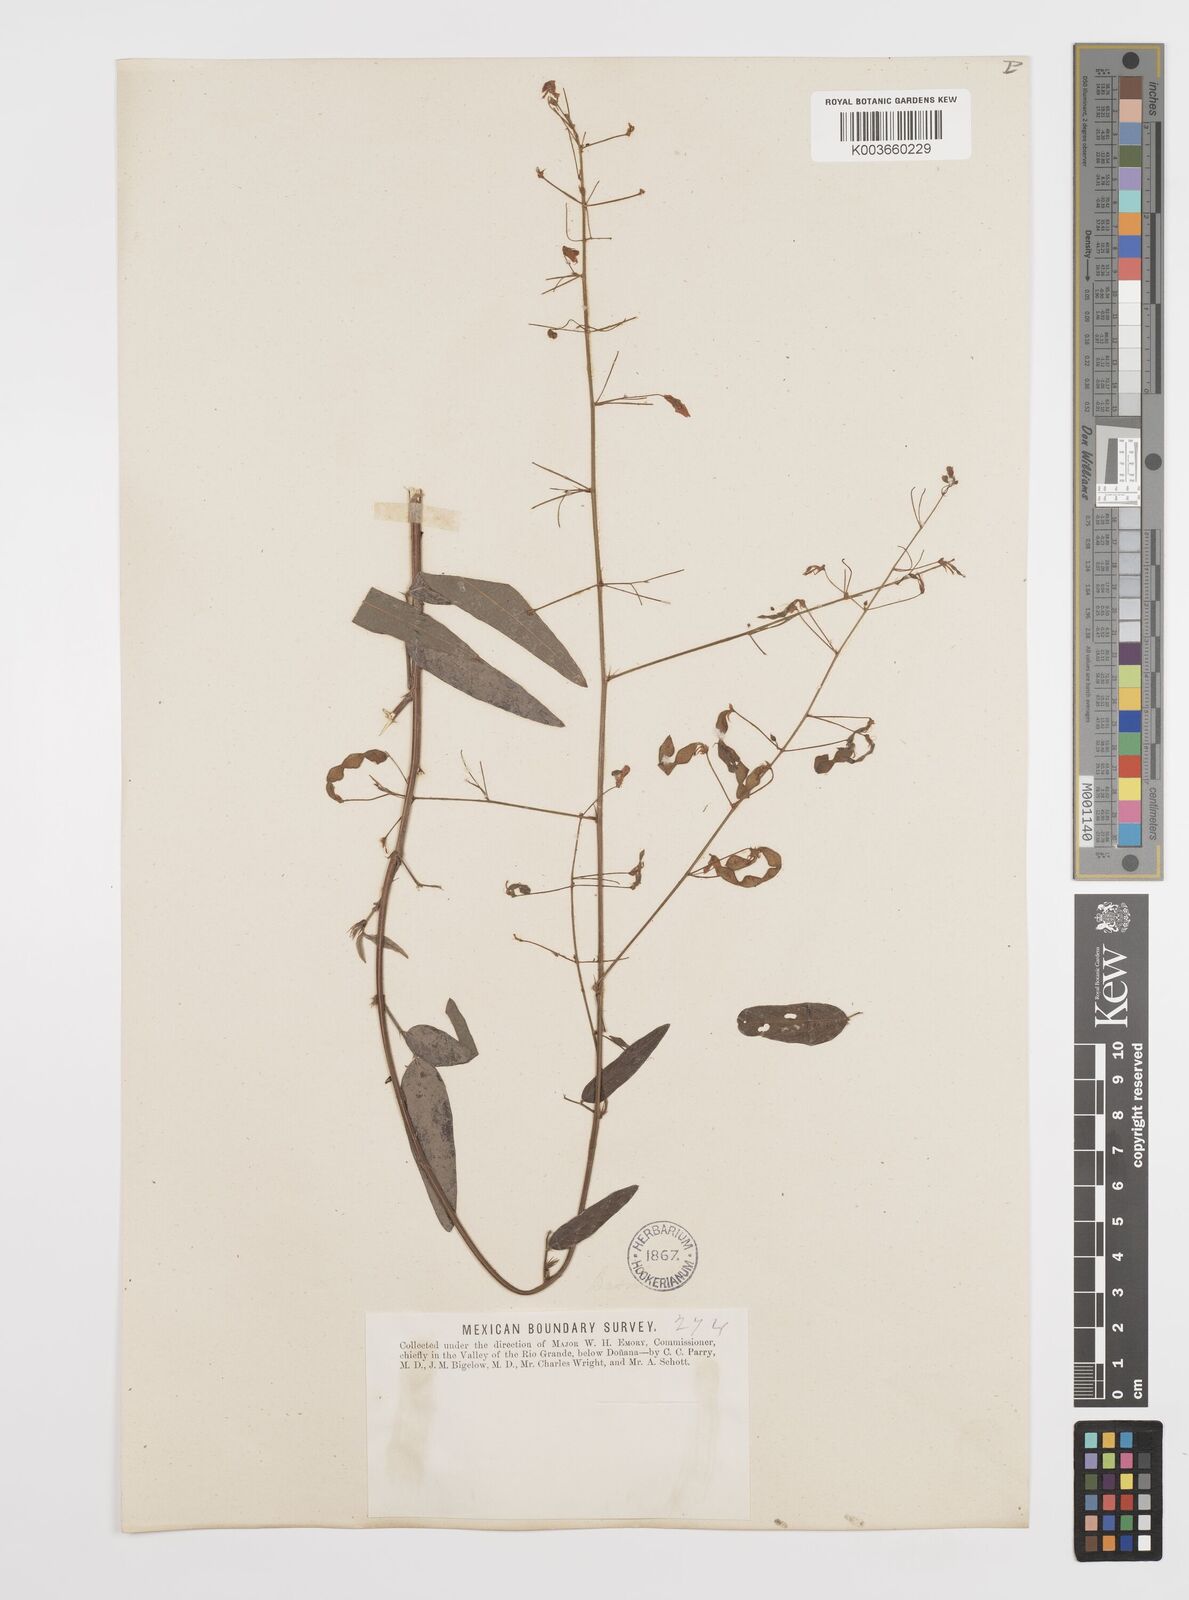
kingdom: Plantae
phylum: Tracheophyta
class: Magnoliopsida
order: Fabales
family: Fabaceae
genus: Desmodium
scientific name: Desmodium paniculatum
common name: Panicled tick-clover
